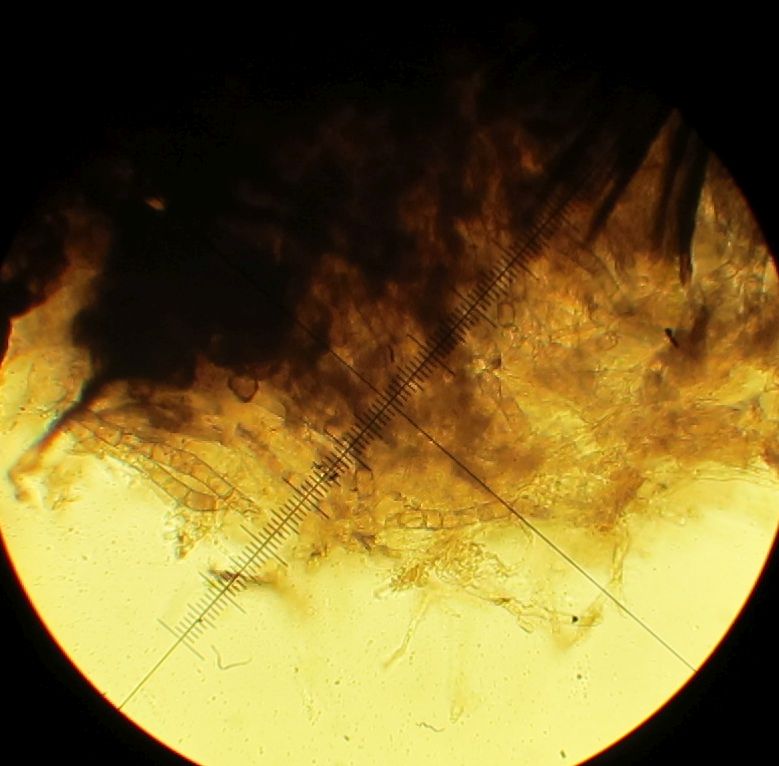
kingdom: Fungi
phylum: Ascomycota
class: Sordariomycetes
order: Sordariales
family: Lasiosphaeridaceae
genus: Lasiosphaeris
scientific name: Lasiosphaeris hirsuta
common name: sorthåret kernesvamp
